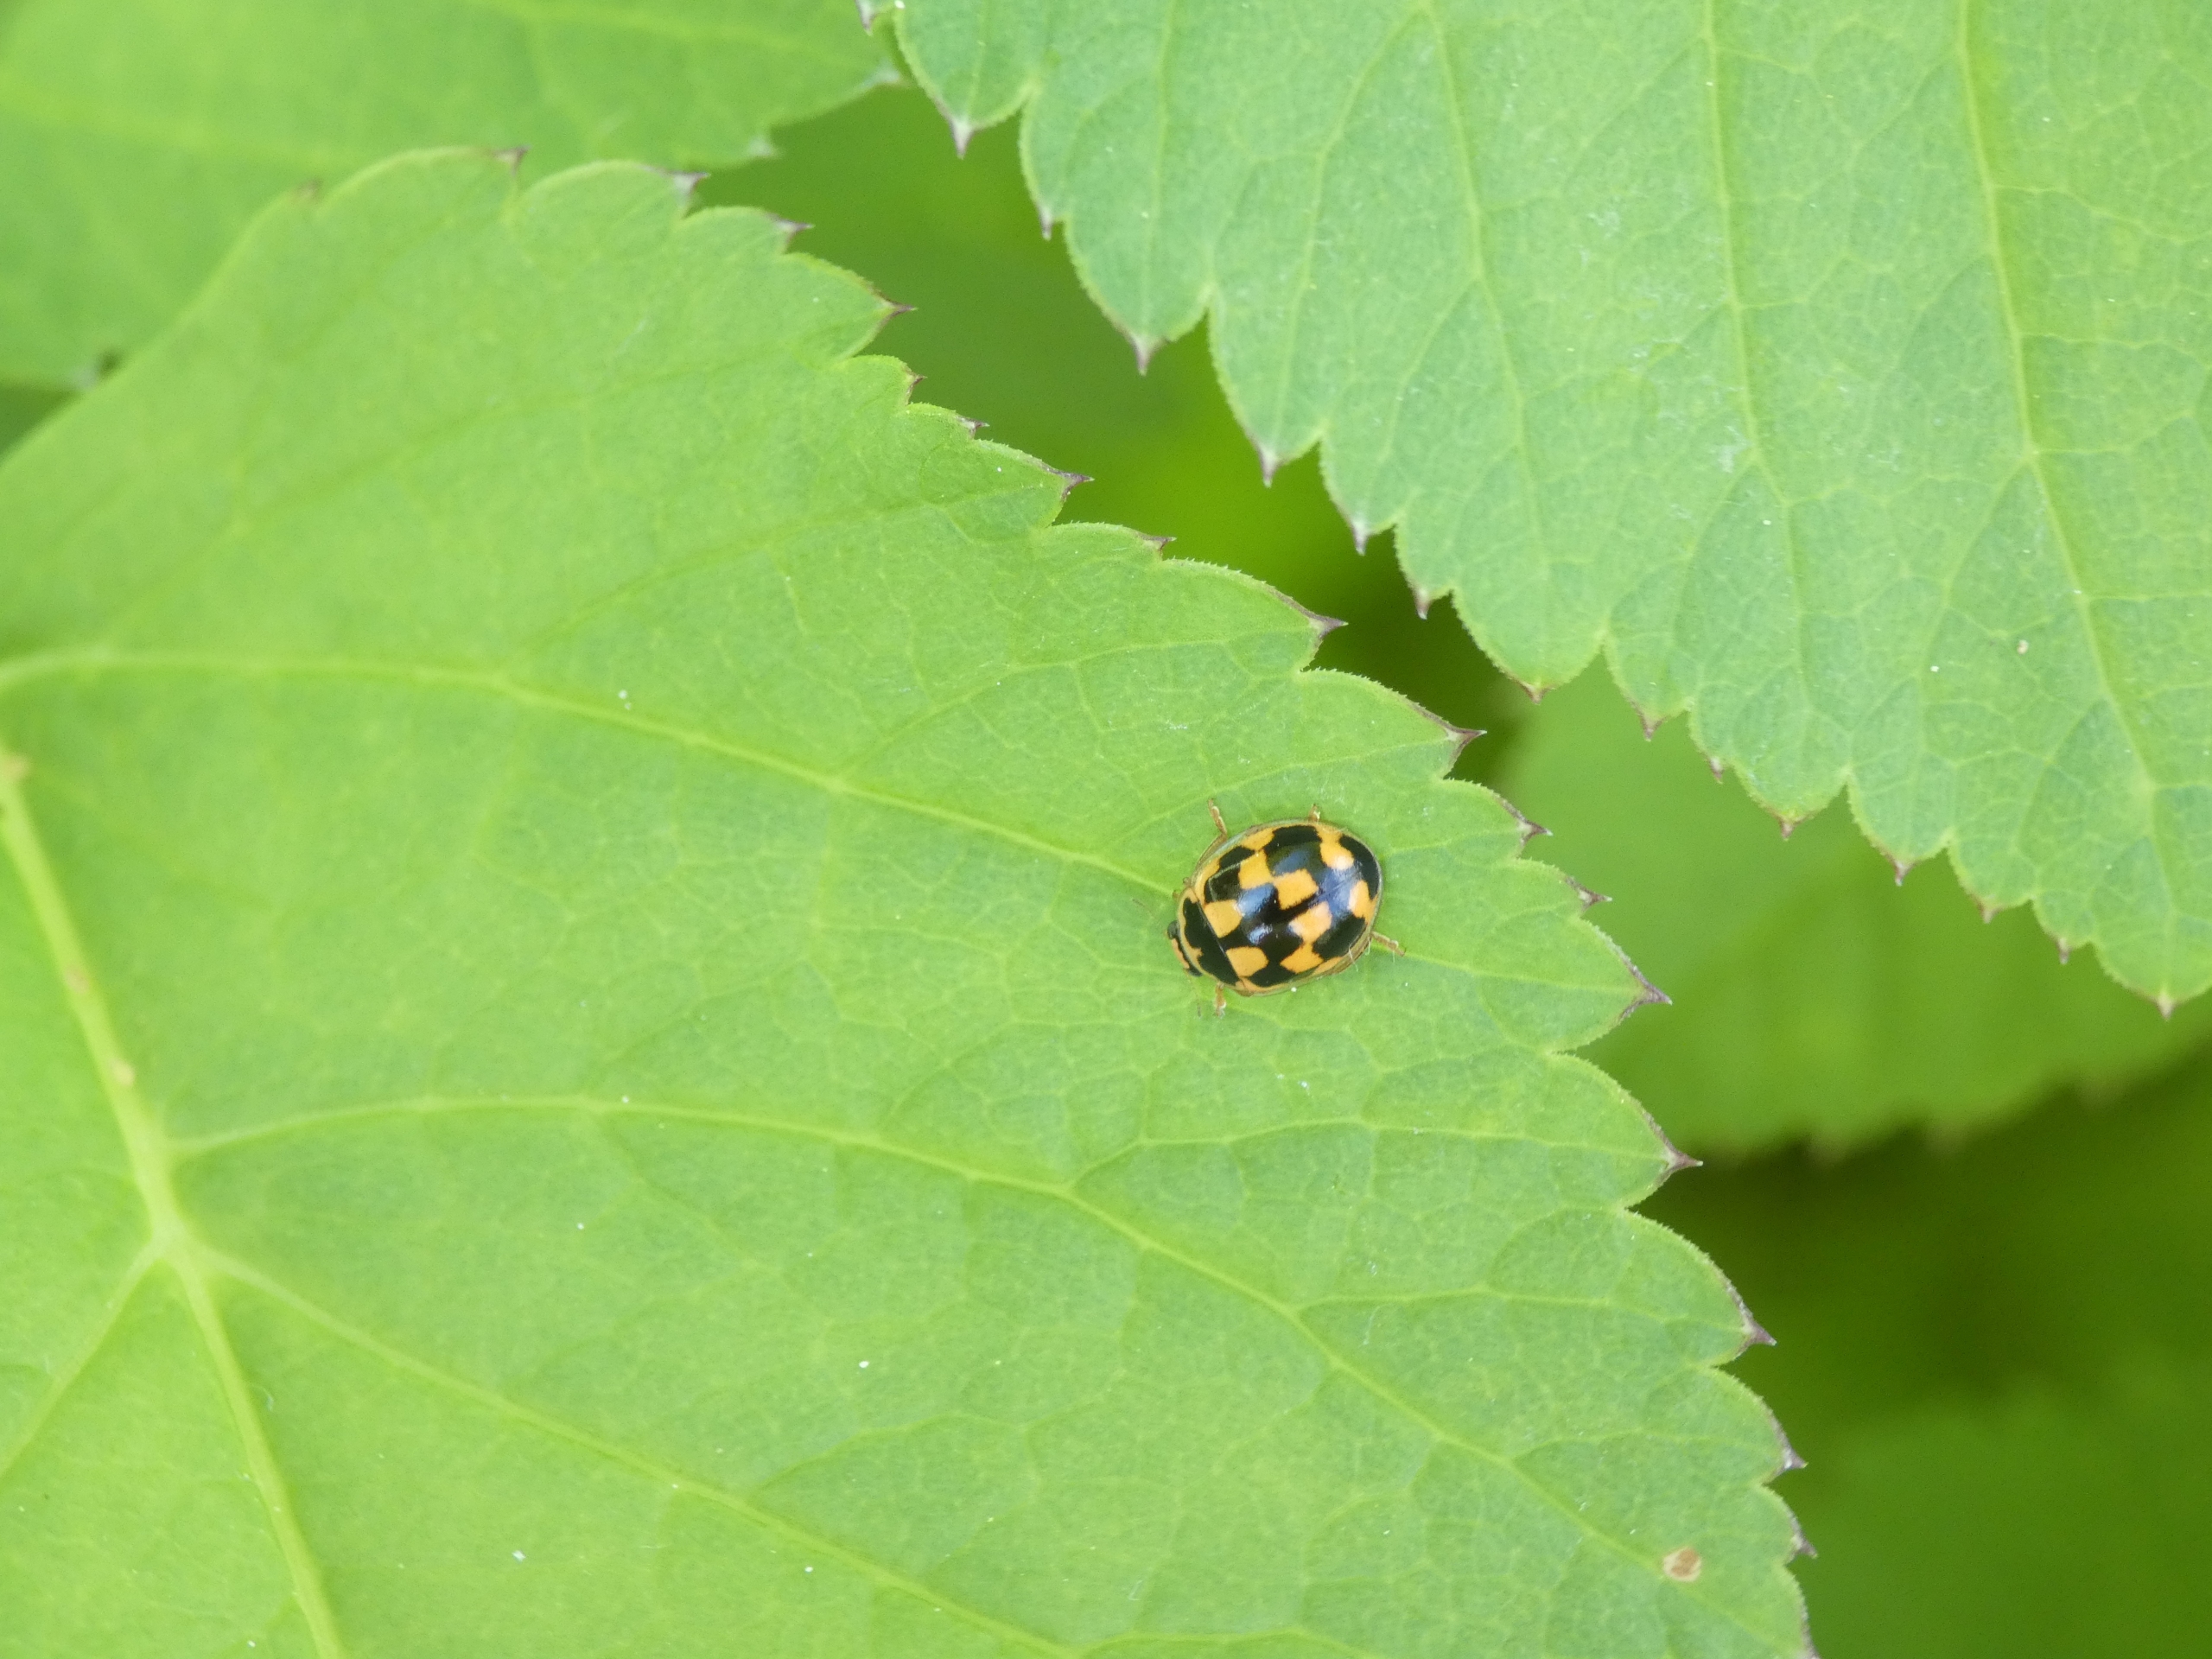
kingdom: Animalia
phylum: Arthropoda
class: Insecta
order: Coleoptera
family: Coccinellidae
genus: Propylaea
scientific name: Propylaea quatuordecimpunctata
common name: Skakbræt
